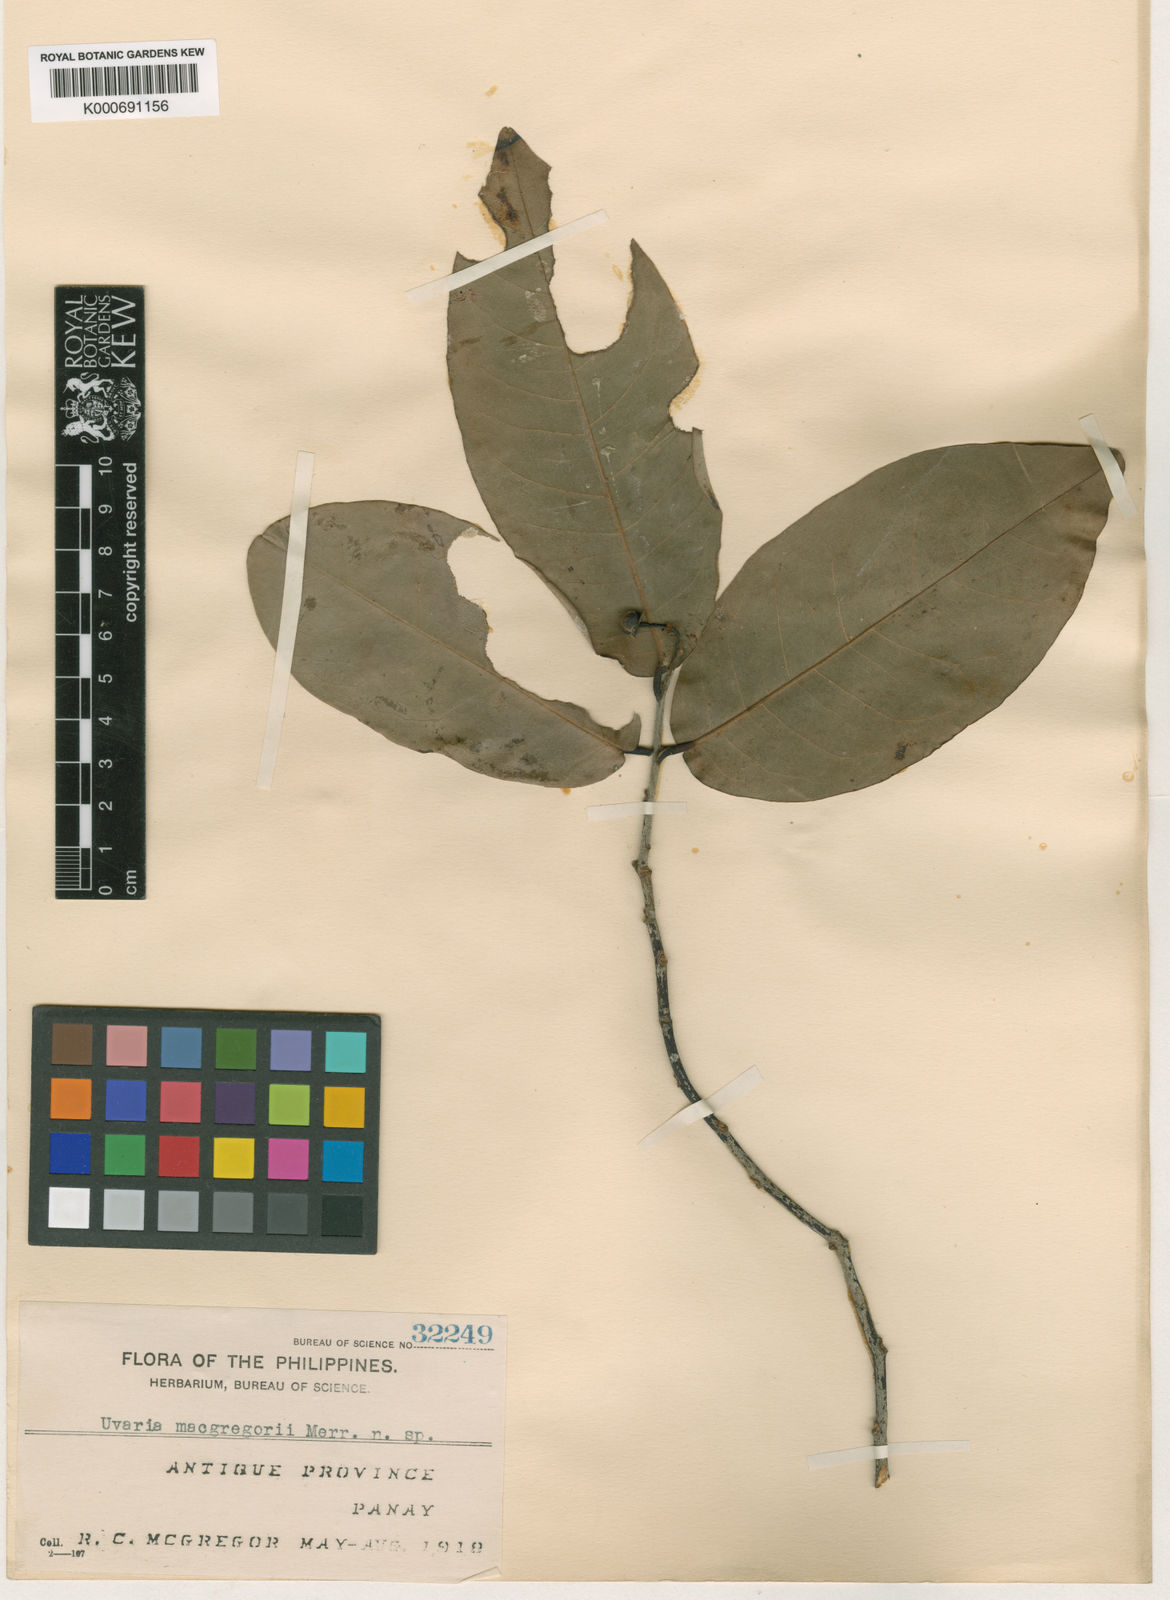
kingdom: Plantae
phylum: Tracheophyta
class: Magnoliopsida
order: Magnoliales
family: Annonaceae
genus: Uvaria
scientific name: Uvaria macgregorii
